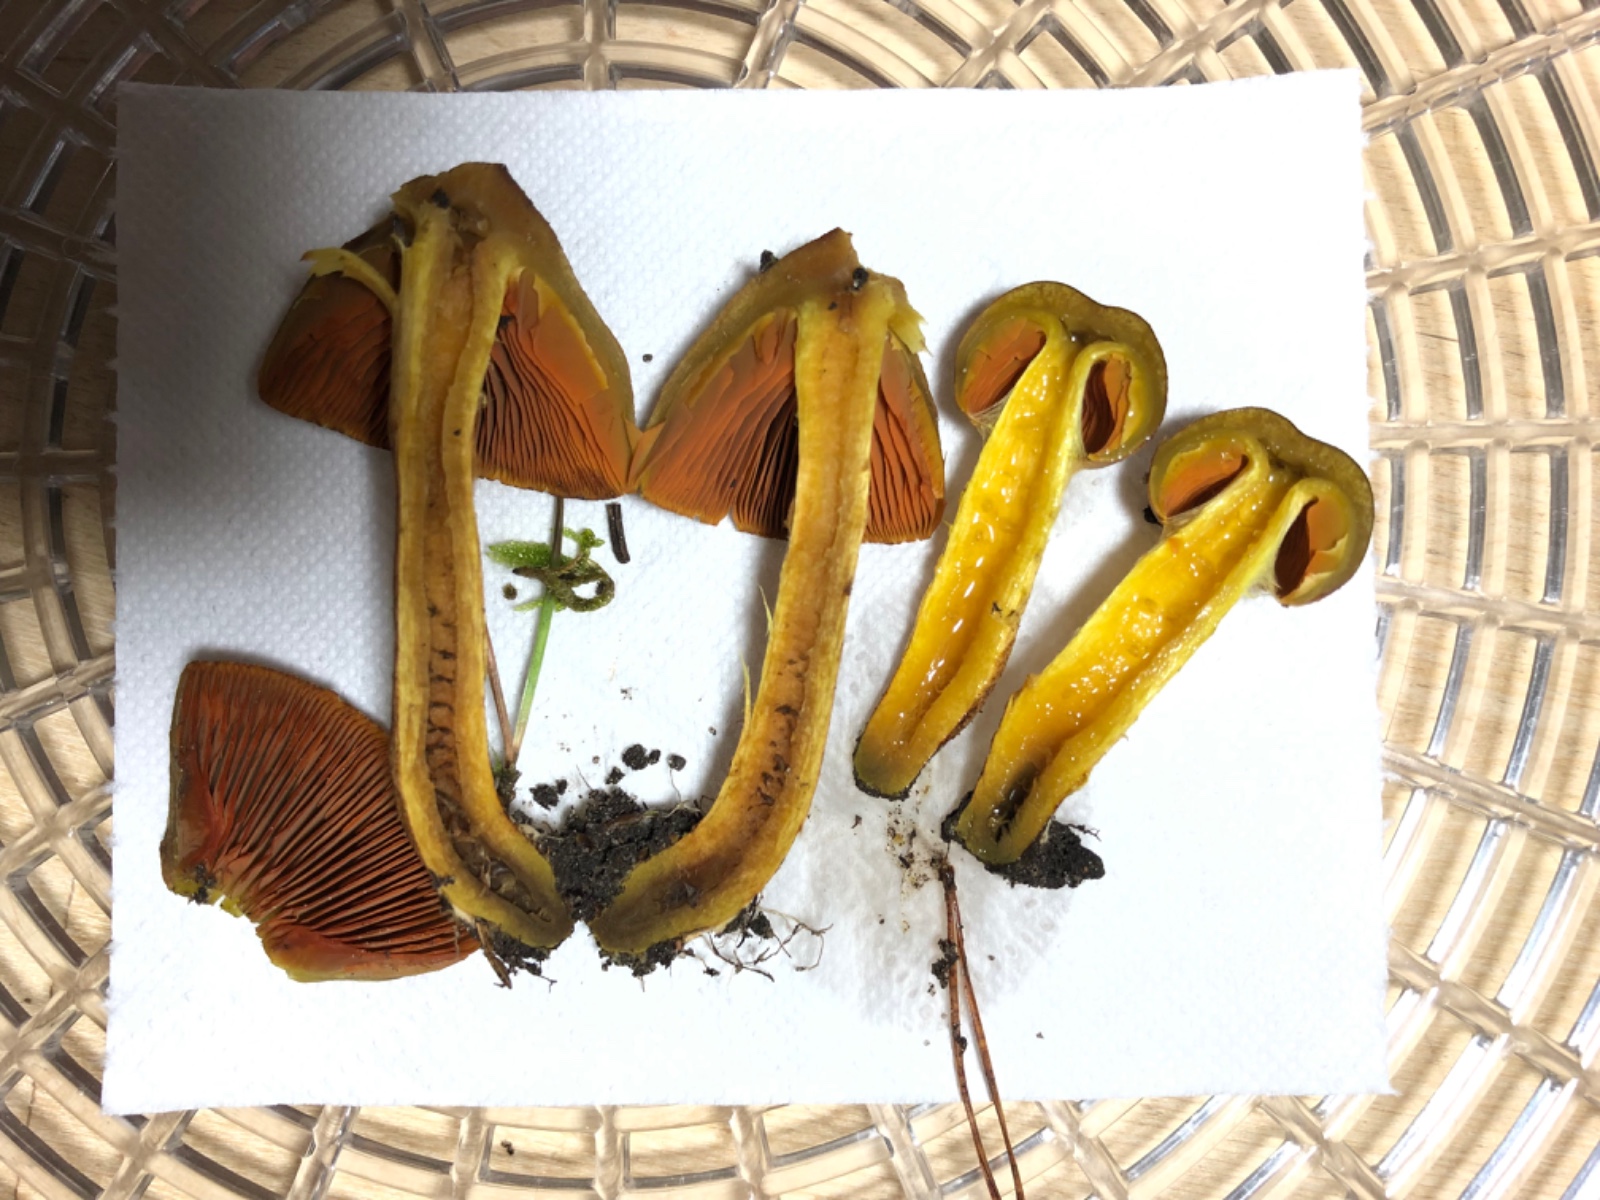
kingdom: Fungi
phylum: Basidiomycota
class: Agaricomycetes
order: Agaricales
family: Cortinariaceae
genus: Cortinarius
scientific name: Cortinarius eleonorae
